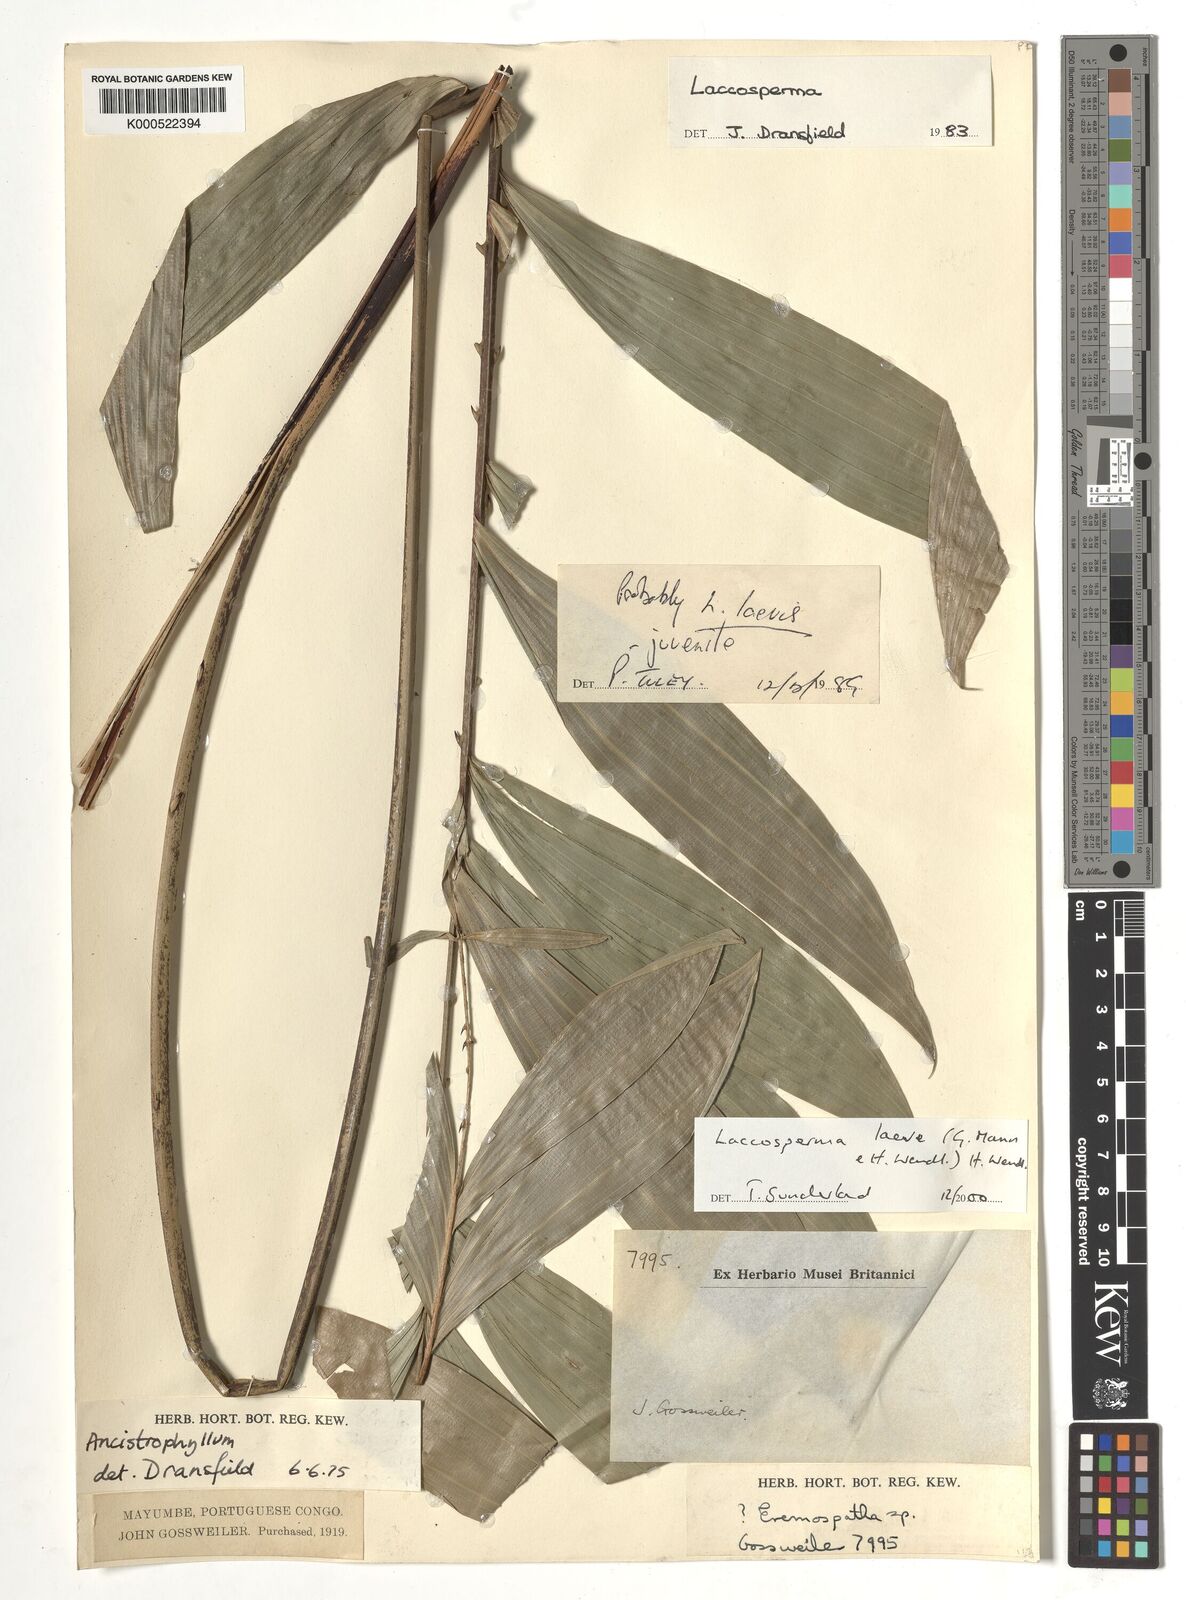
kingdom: Plantae
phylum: Tracheophyta
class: Liliopsida
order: Arecales
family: Arecaceae
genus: Laccosperma
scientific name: Laccosperma laeve
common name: Rattan
